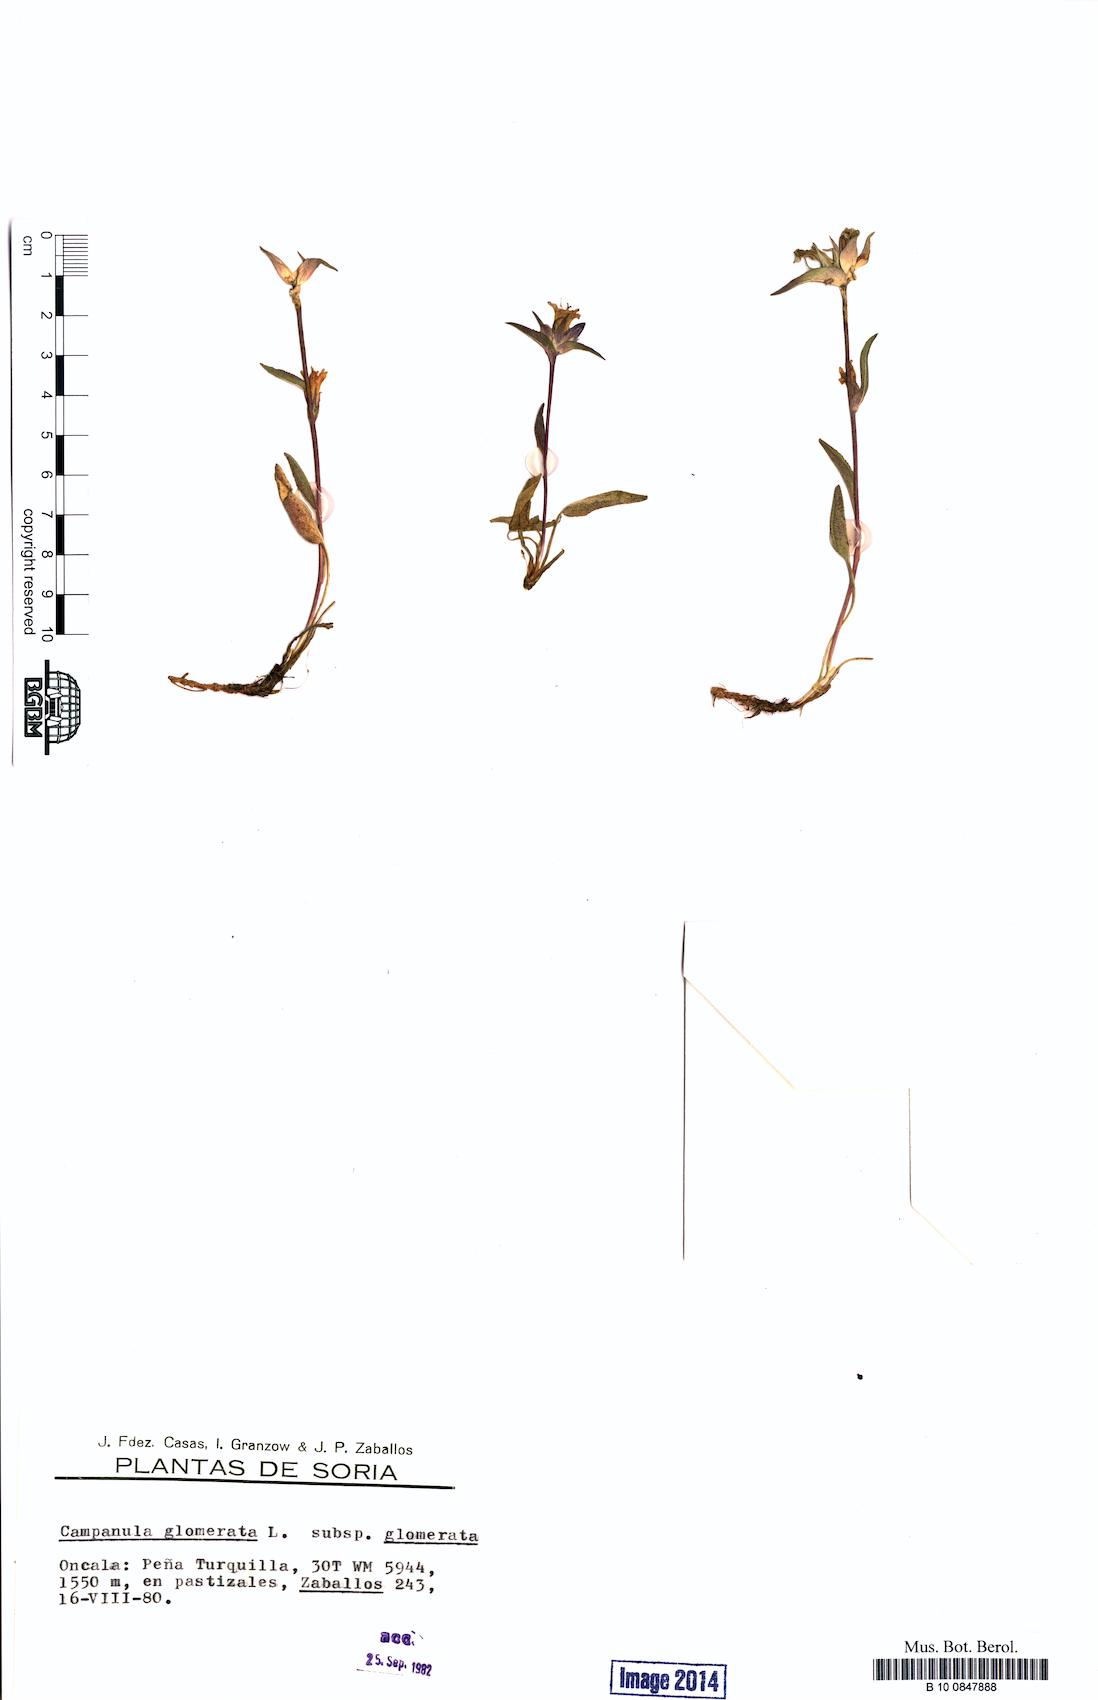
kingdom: Plantae
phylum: Tracheophyta
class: Magnoliopsida
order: Asterales
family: Campanulaceae
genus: Campanula
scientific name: Campanula glomerata
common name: Clustered bellflower
